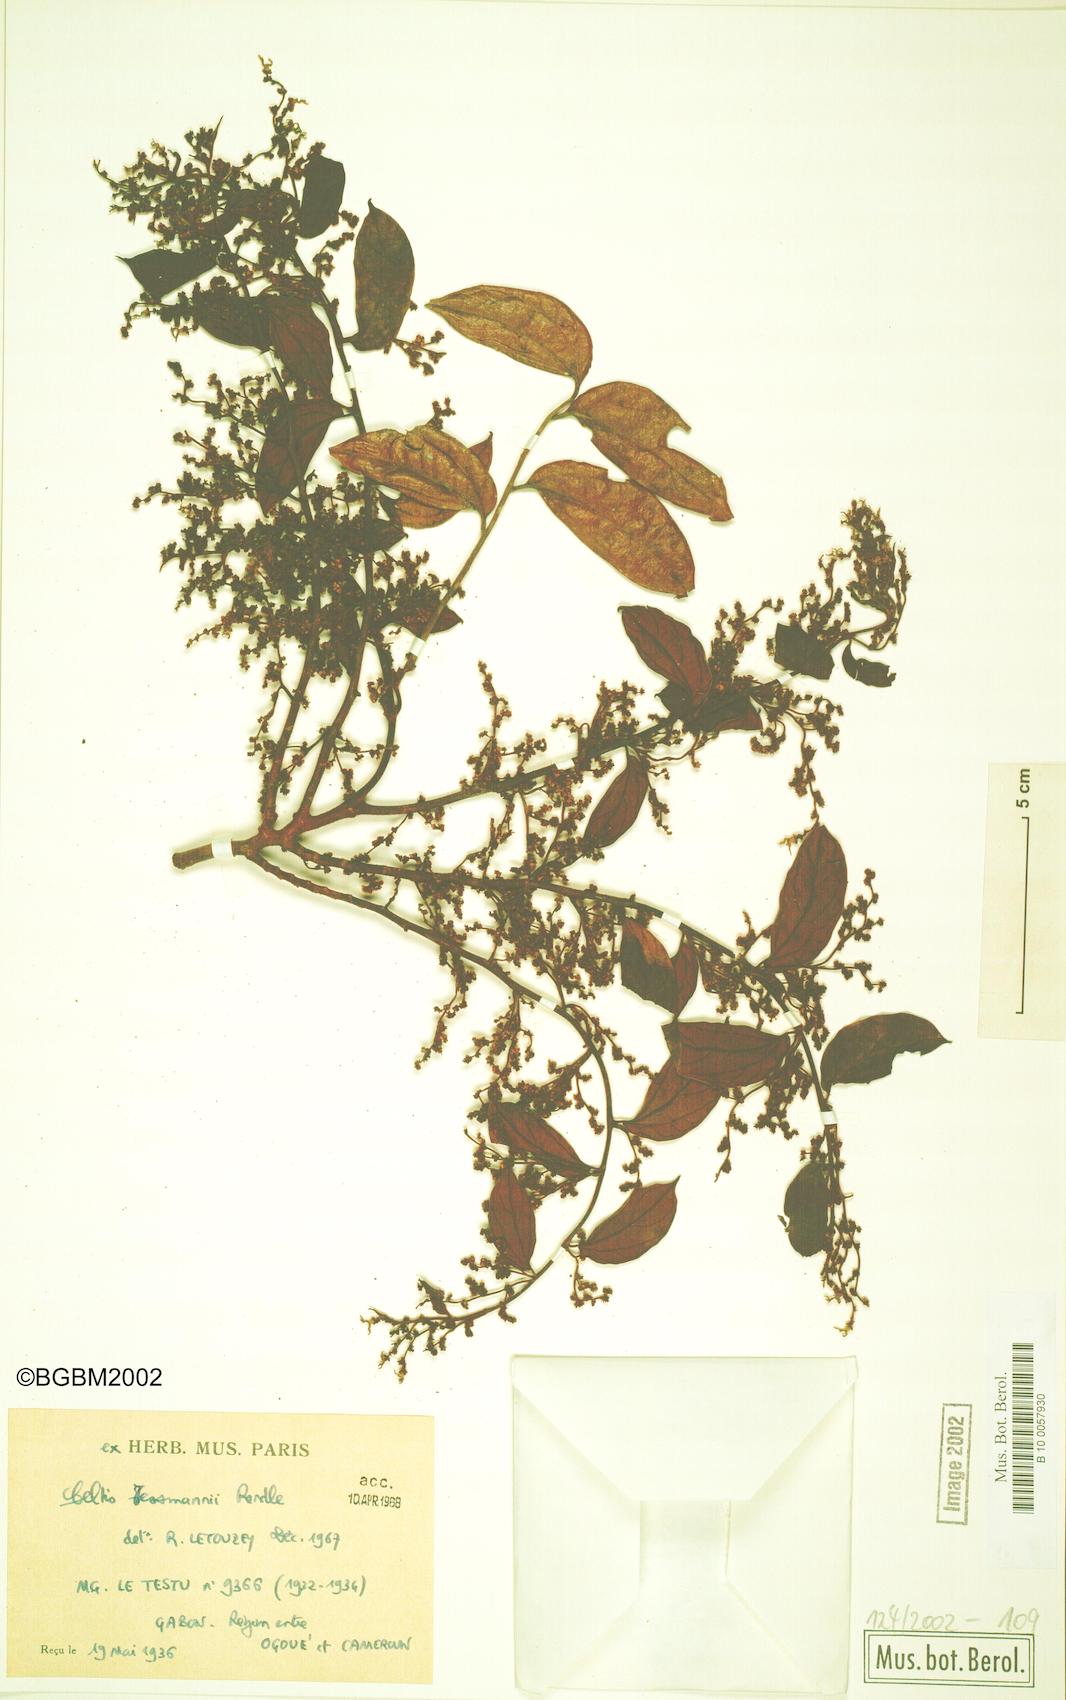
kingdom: Plantae
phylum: Tracheophyta
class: Magnoliopsida
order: Rosales
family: Cannabaceae
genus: Celtis
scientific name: Celtis tessmannii
